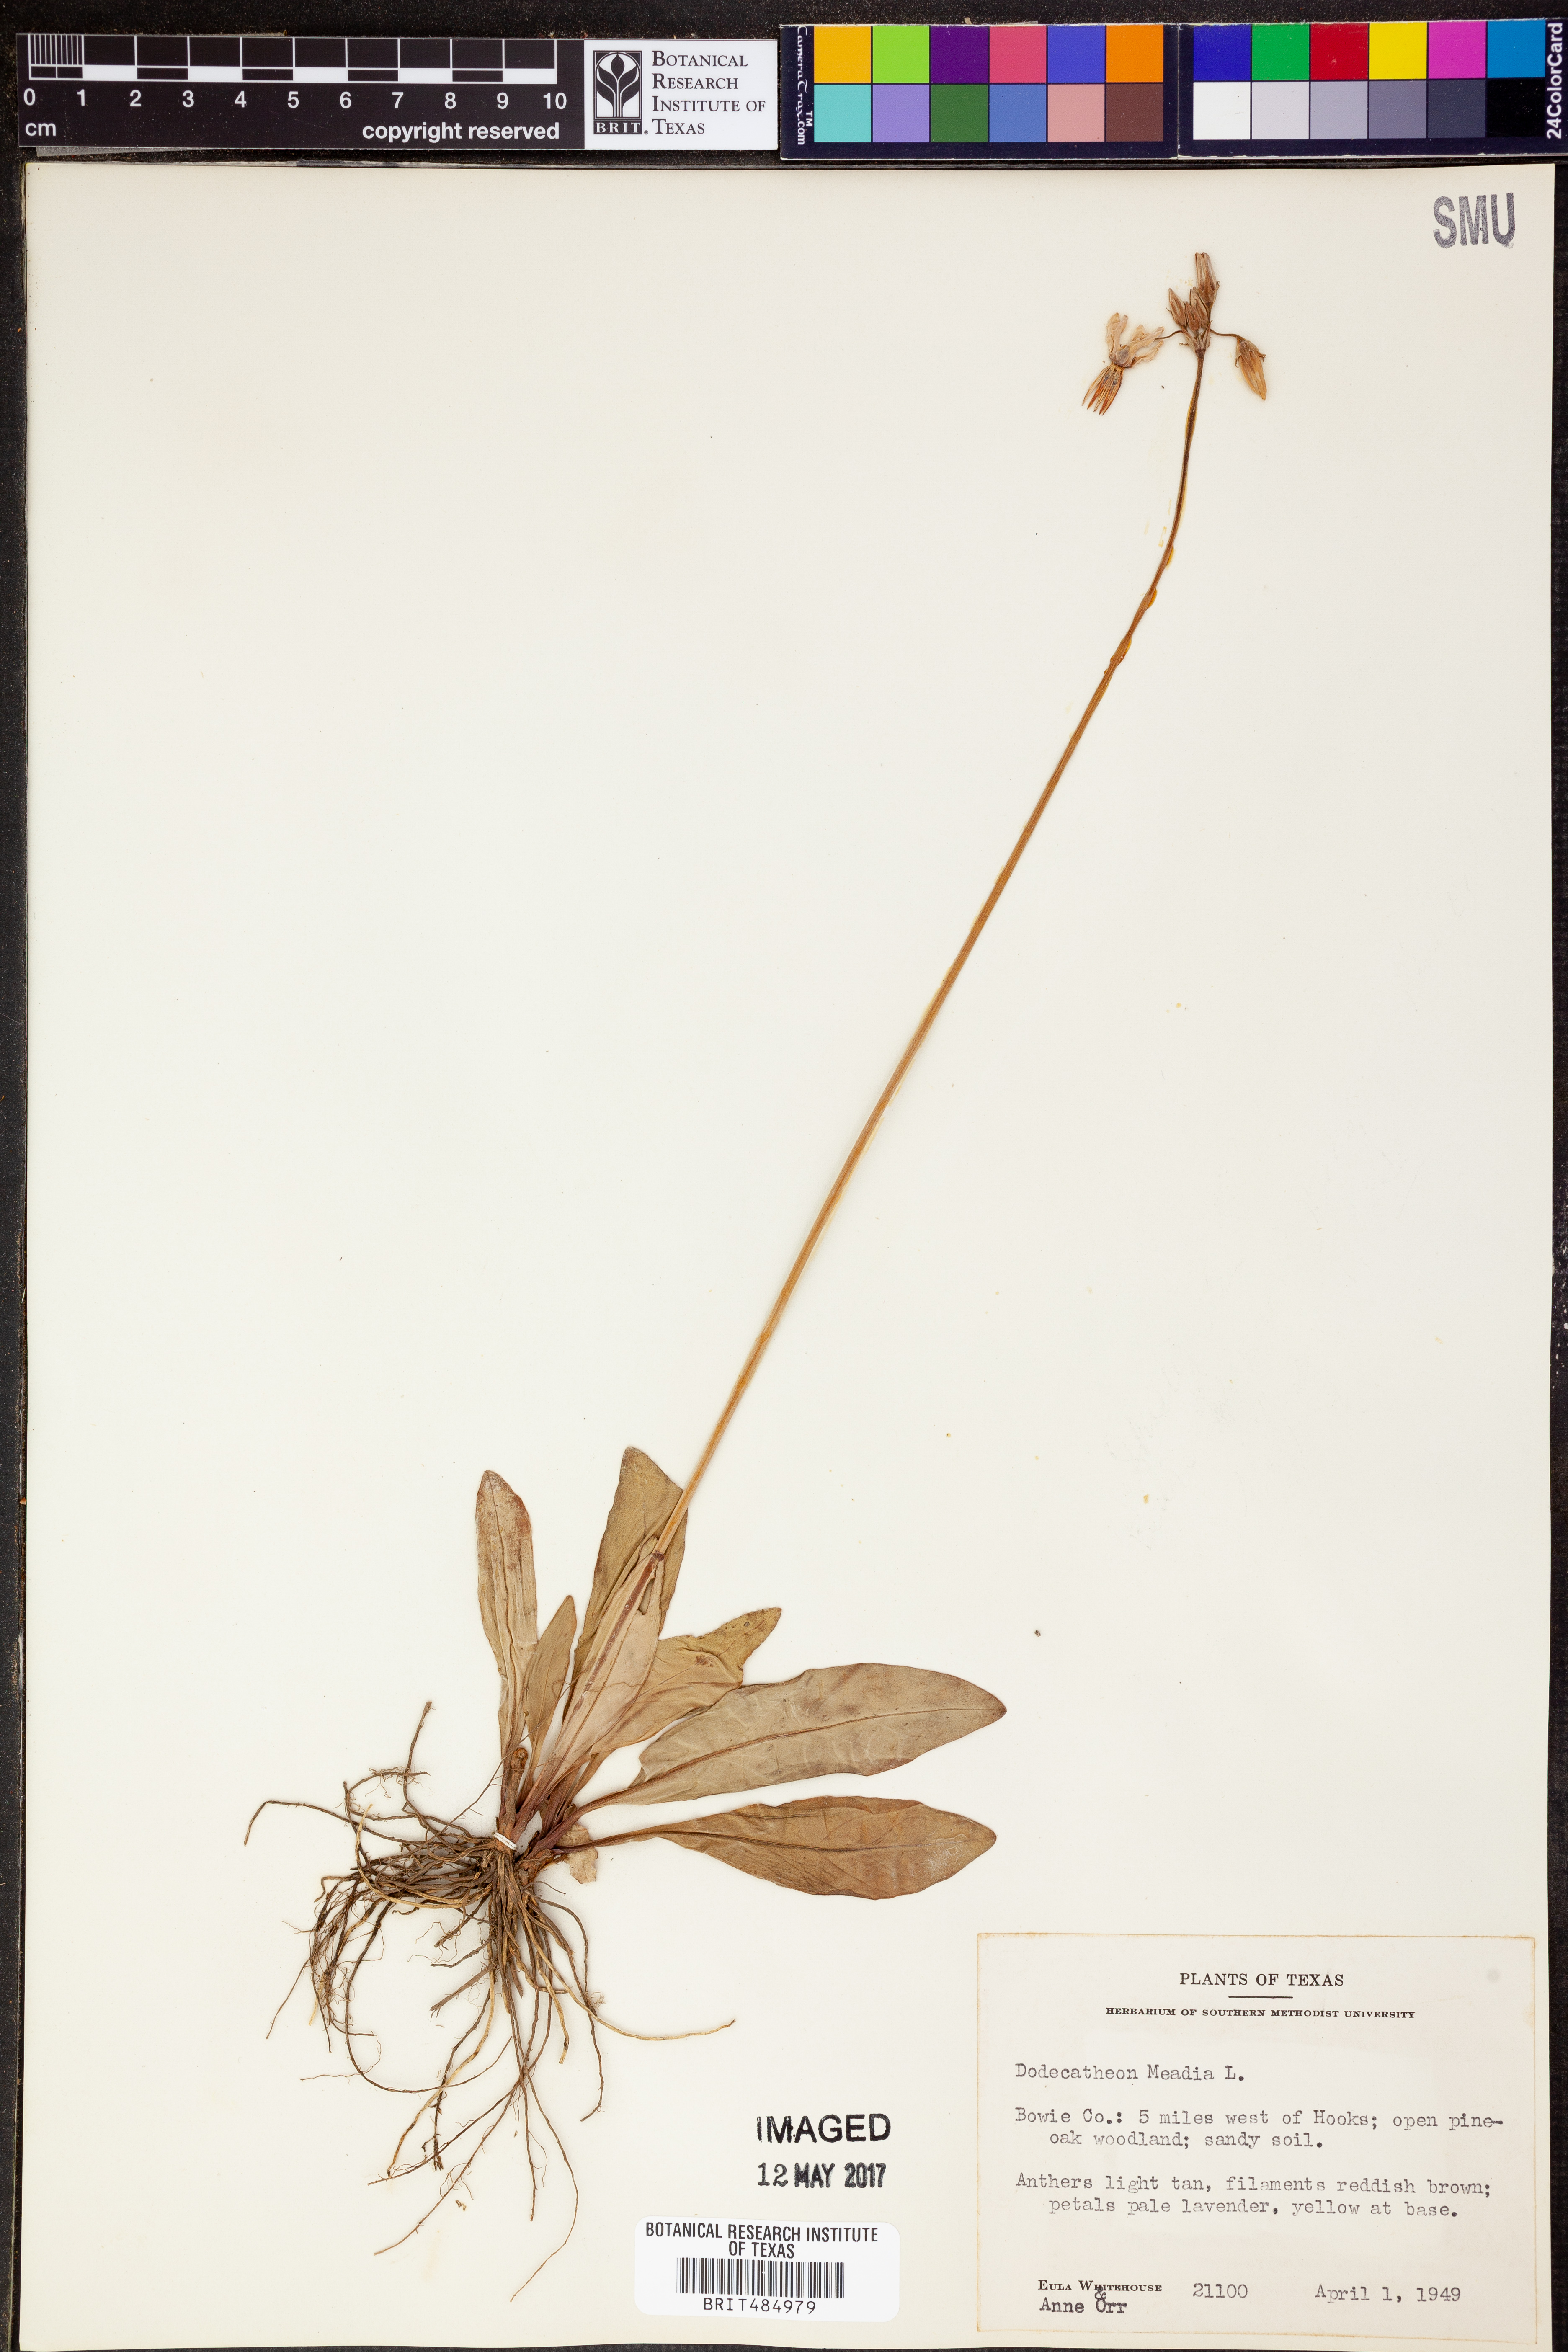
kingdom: Plantae
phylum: Tracheophyta
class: Magnoliopsida
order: Ericales
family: Primulaceae
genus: Dodecatheon
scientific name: Dodecatheon meadia
